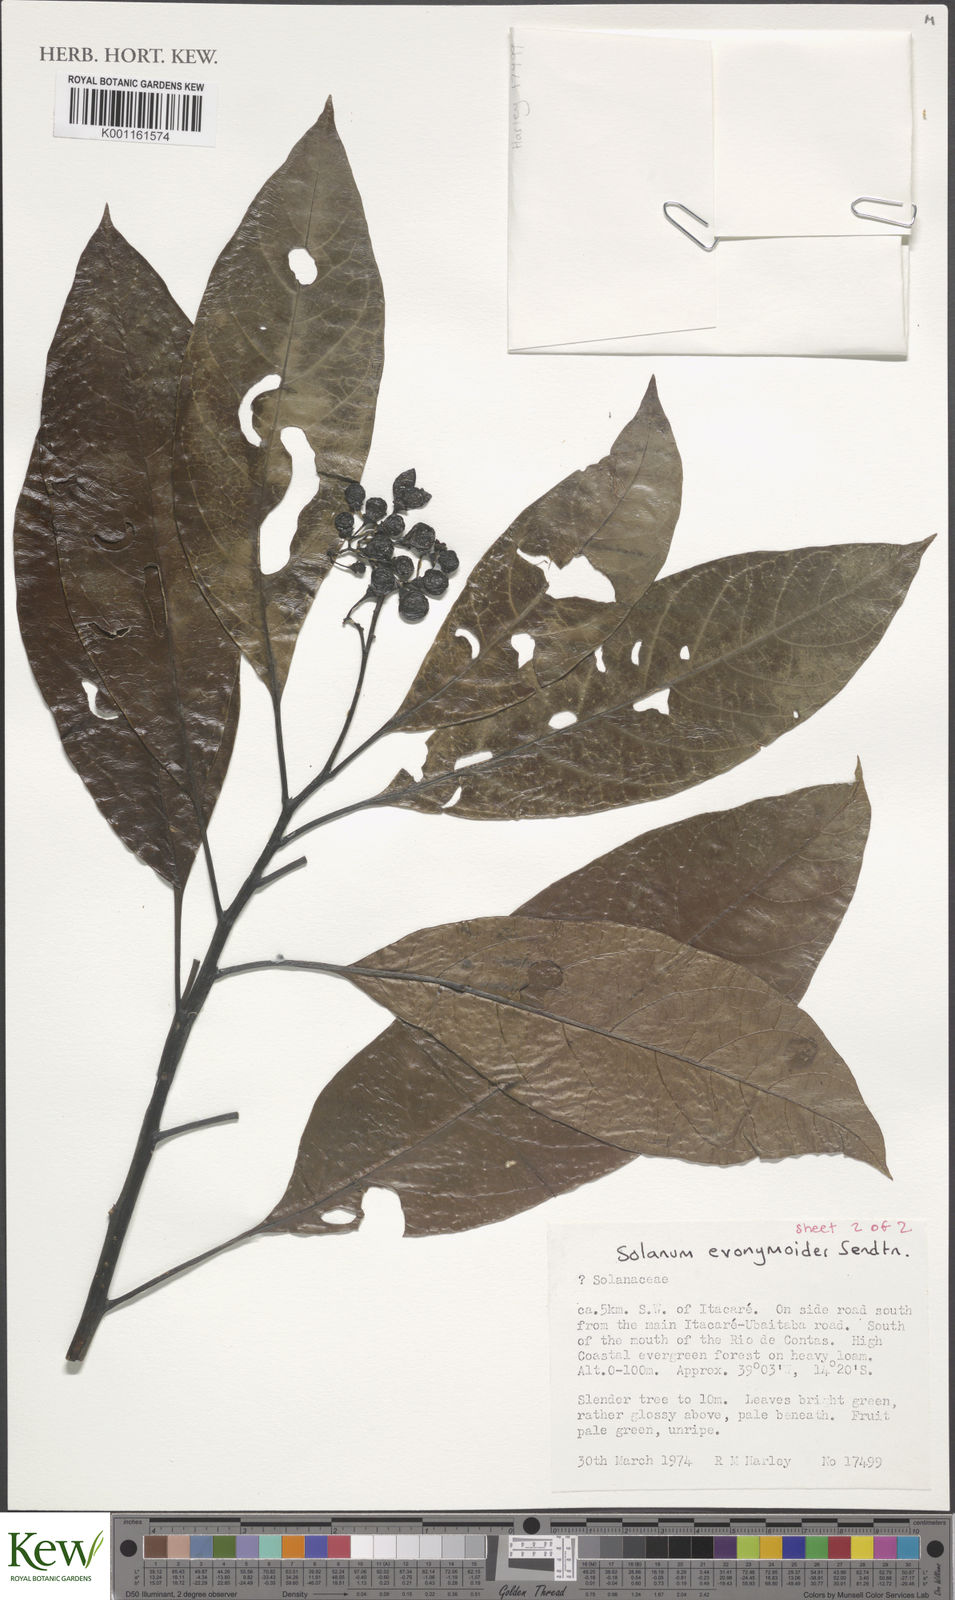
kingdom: Plantae
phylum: Tracheophyta
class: Magnoliopsida
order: Solanales
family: Solanaceae
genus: Solanum
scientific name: Solanum evonymoides
